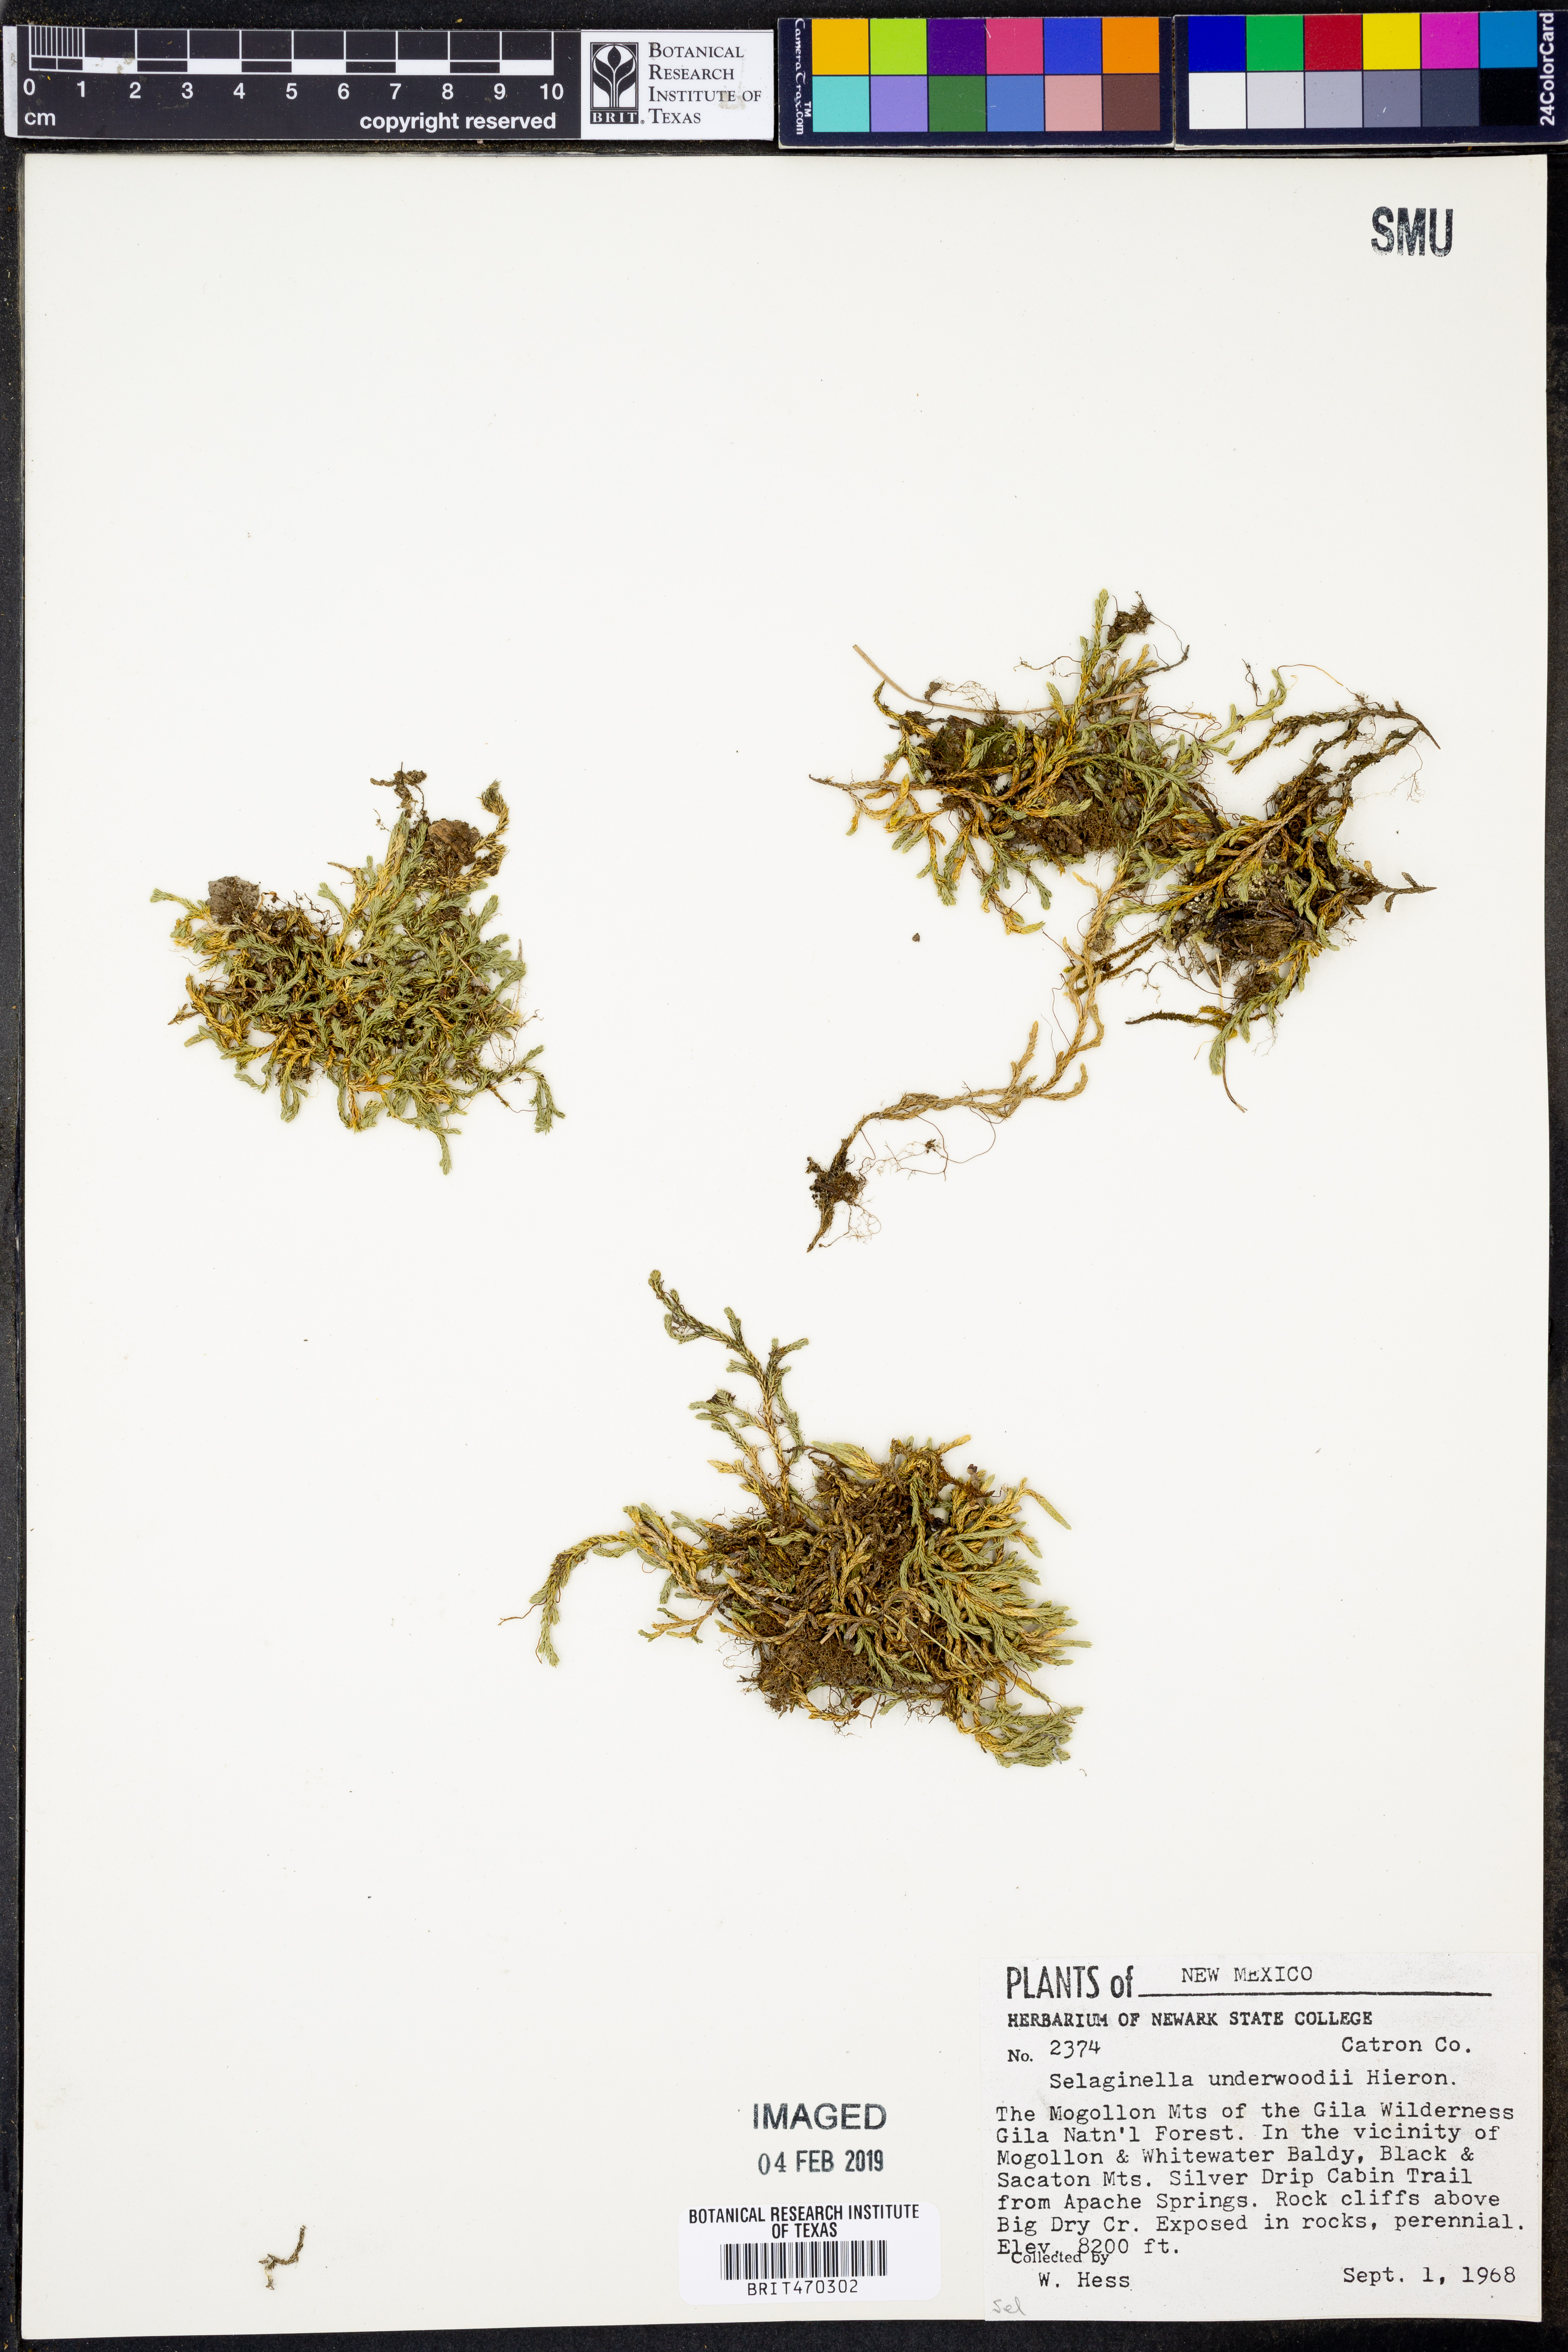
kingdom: Plantae
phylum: Tracheophyta
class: Lycopodiopsida
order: Selaginellales
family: Selaginellaceae
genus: Selaginella
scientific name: Selaginella underwoodii
